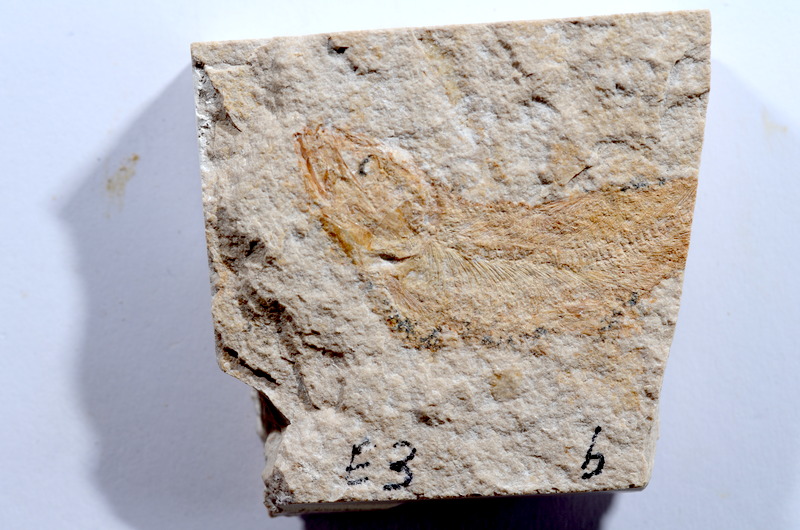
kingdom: Animalia
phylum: Chordata
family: Ascalaboidae
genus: Tharsis
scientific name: Tharsis dubius
